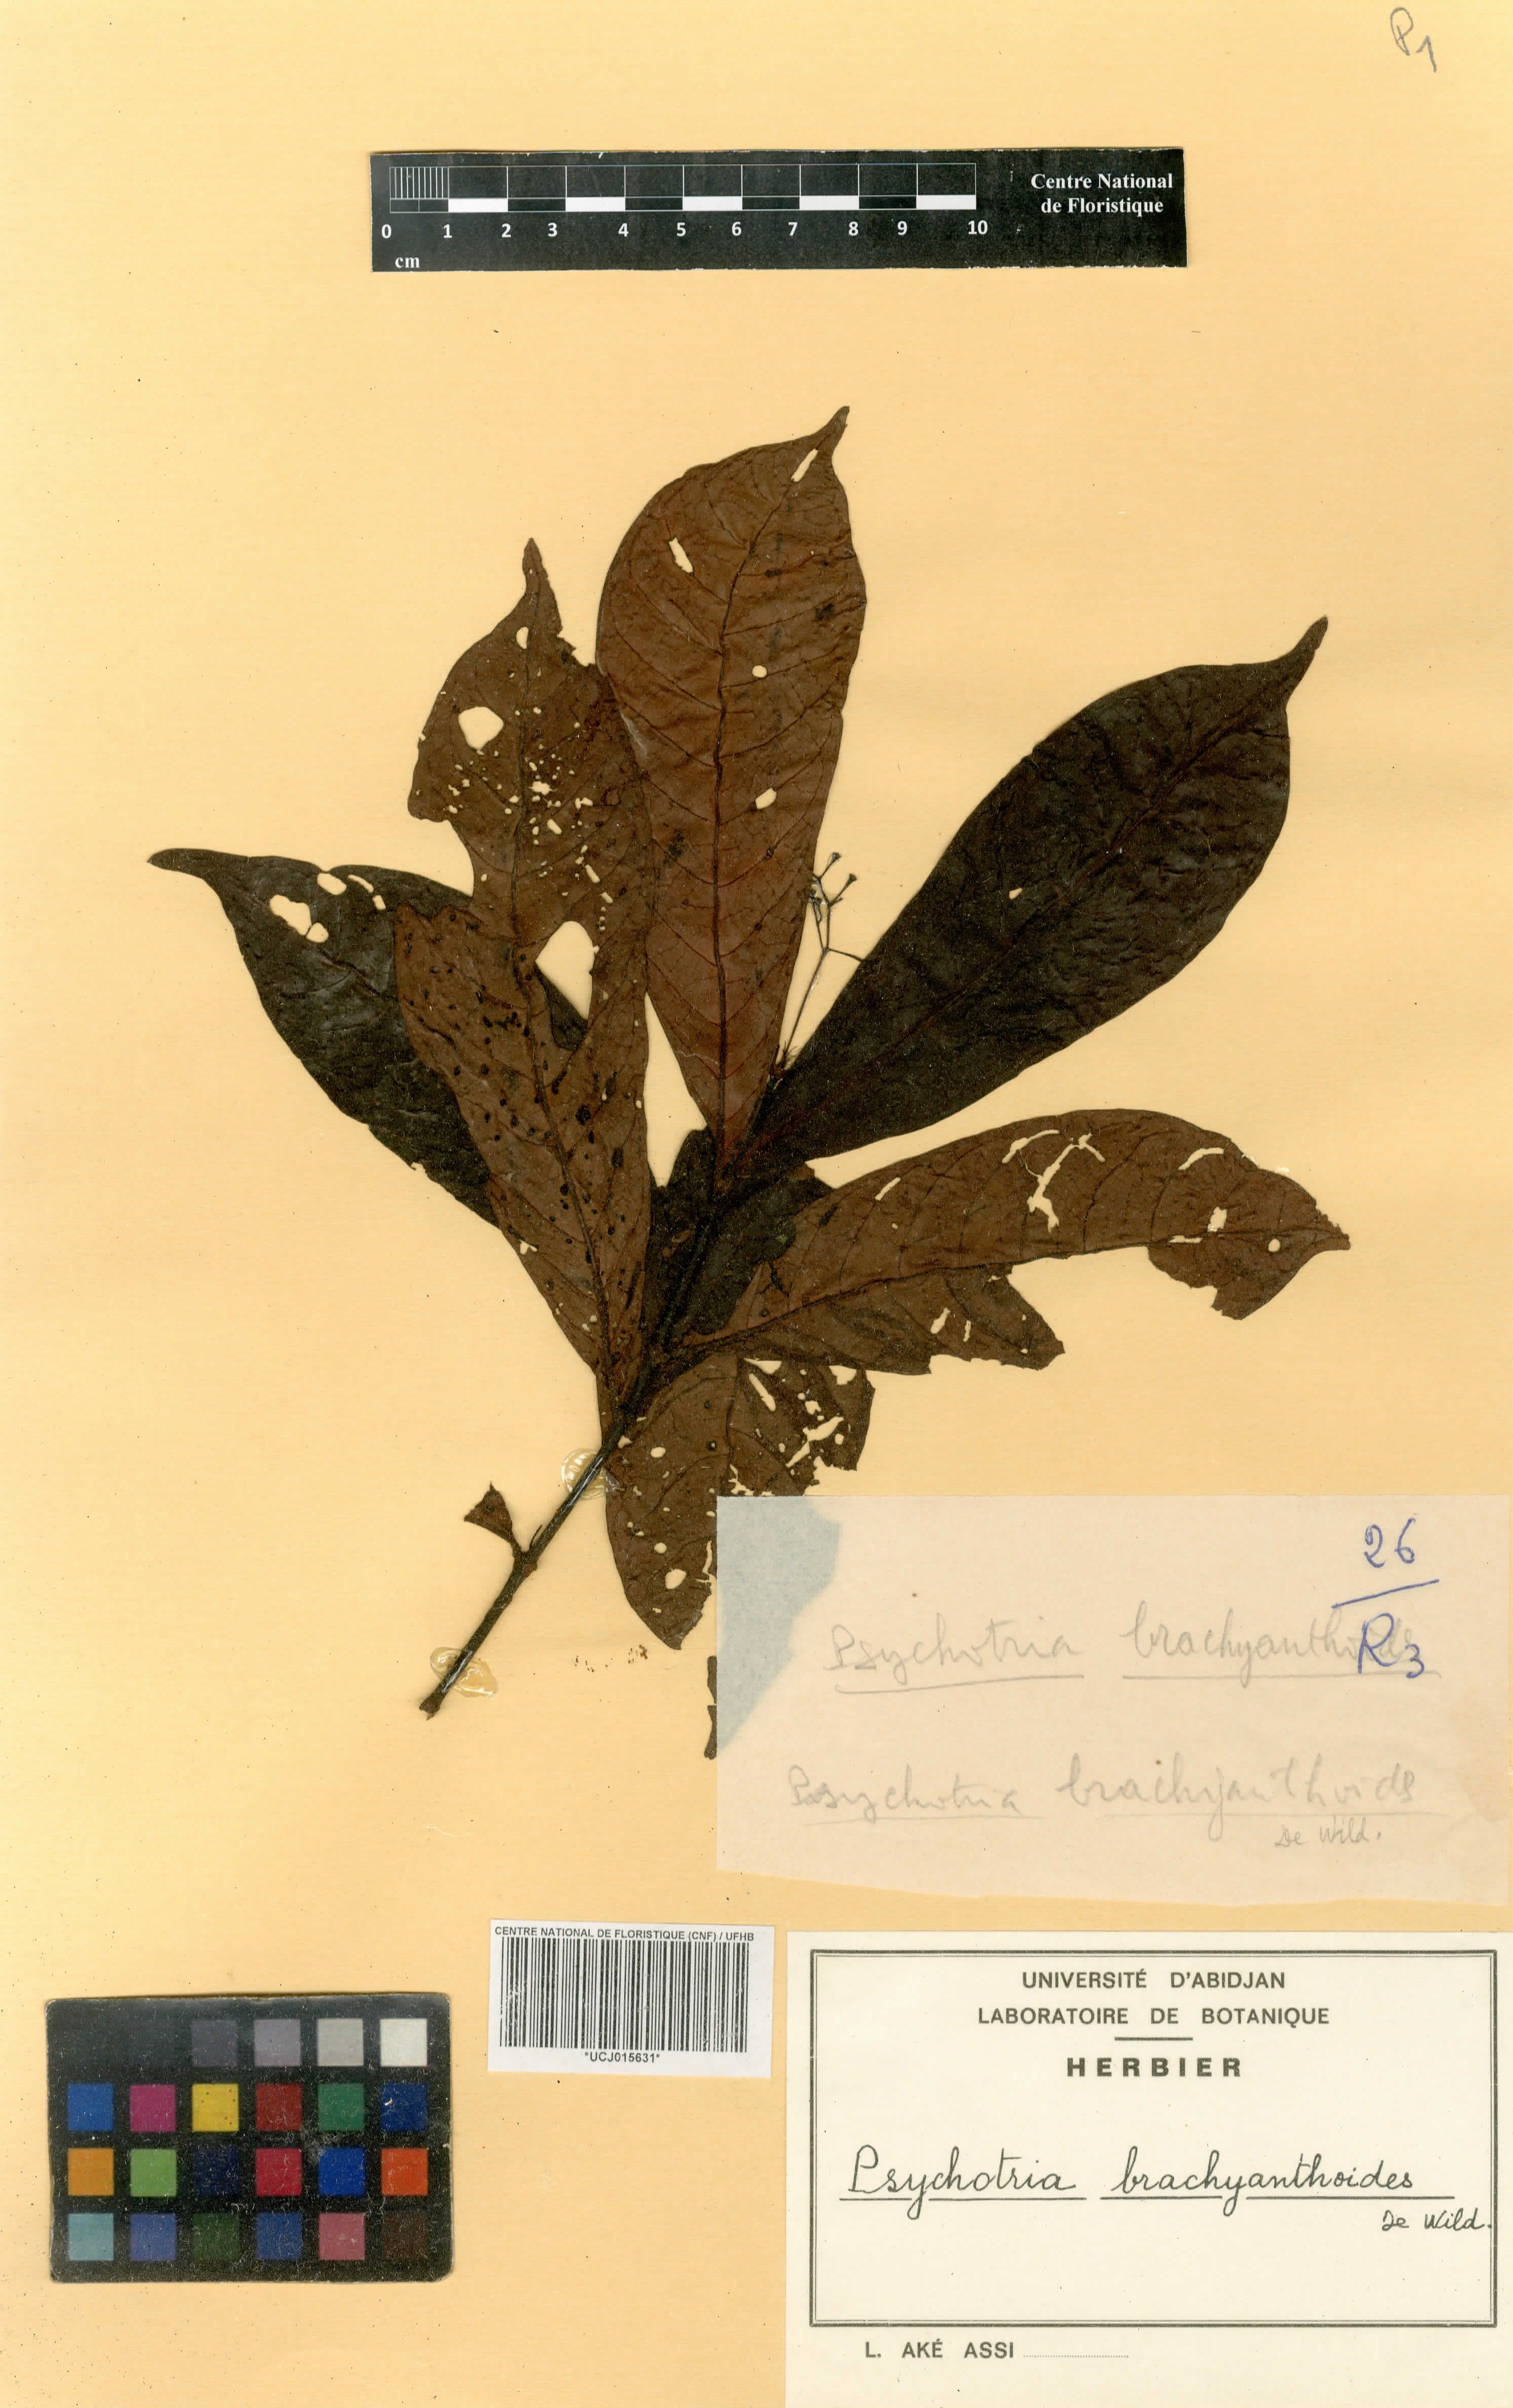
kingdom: Plantae
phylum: Tracheophyta
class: Magnoliopsida
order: Gentianales
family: Rubiaceae
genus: Psychotria
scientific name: Psychotria brachyanthoides
